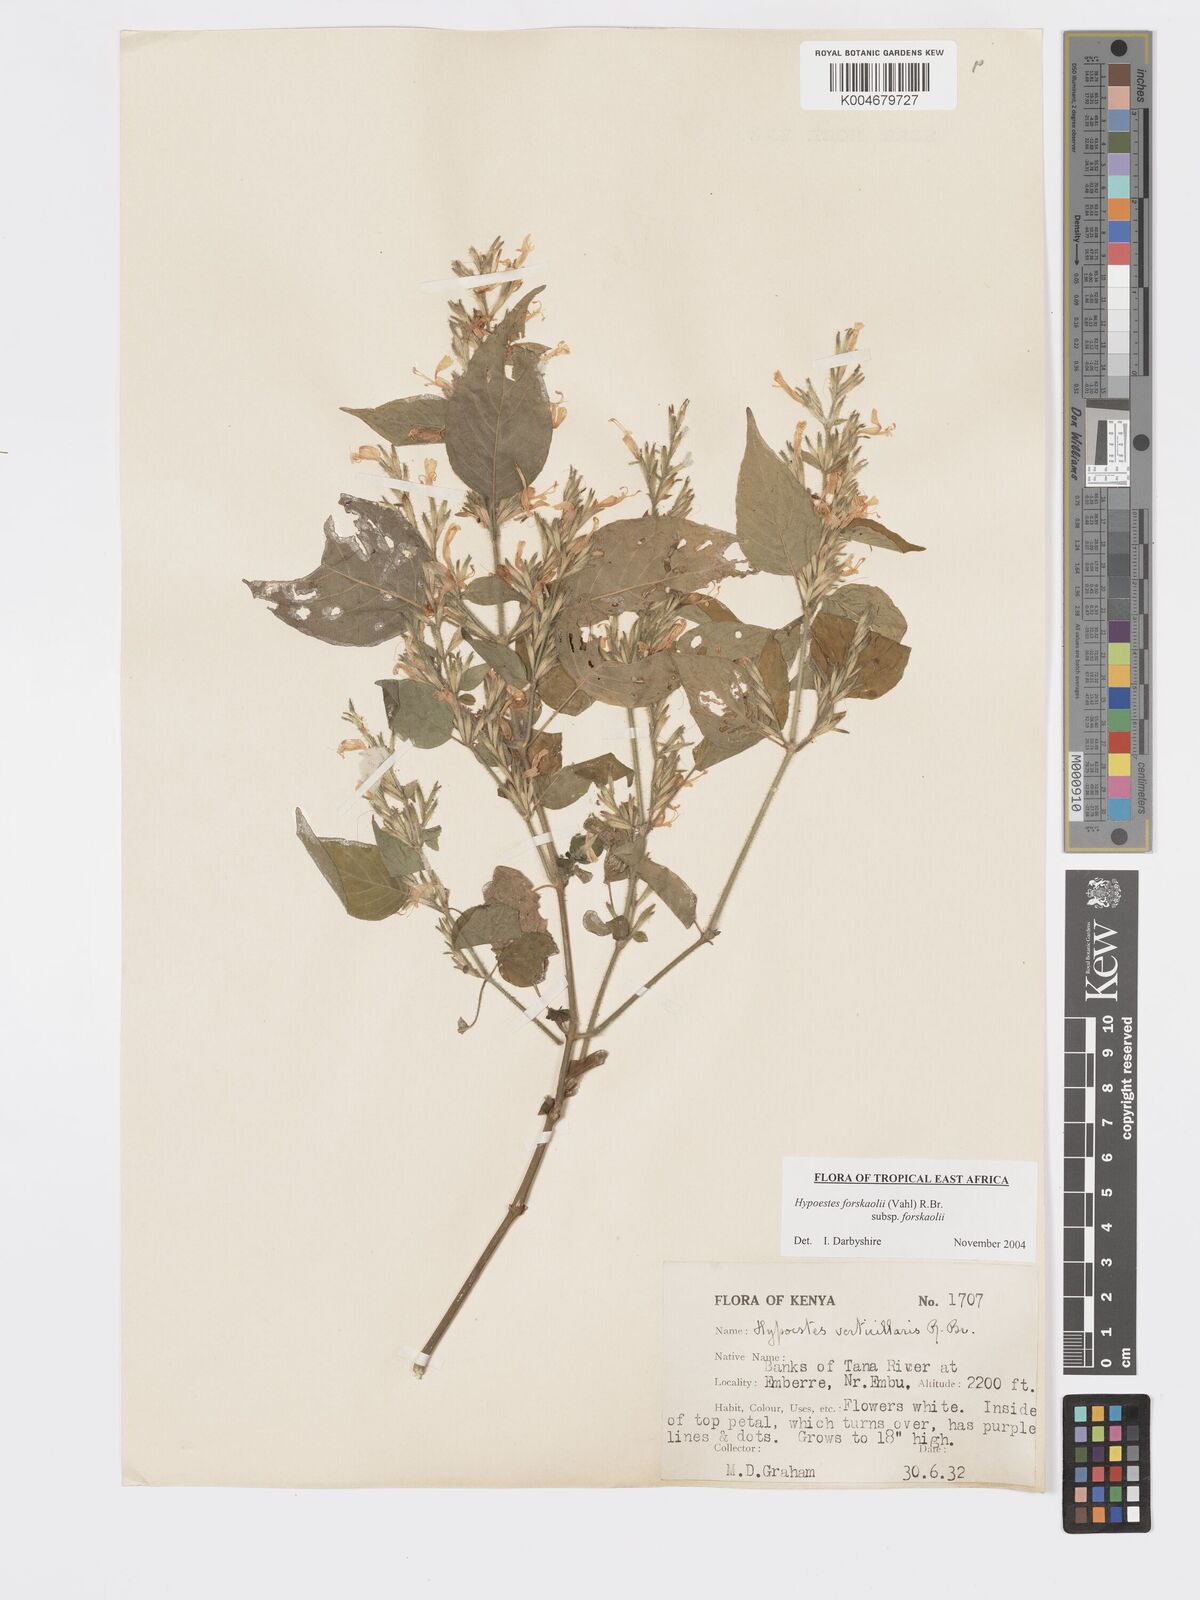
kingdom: Plantae
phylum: Tracheophyta
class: Magnoliopsida
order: Lamiales
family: Acanthaceae
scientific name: Acanthaceae
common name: Acanthaceae
